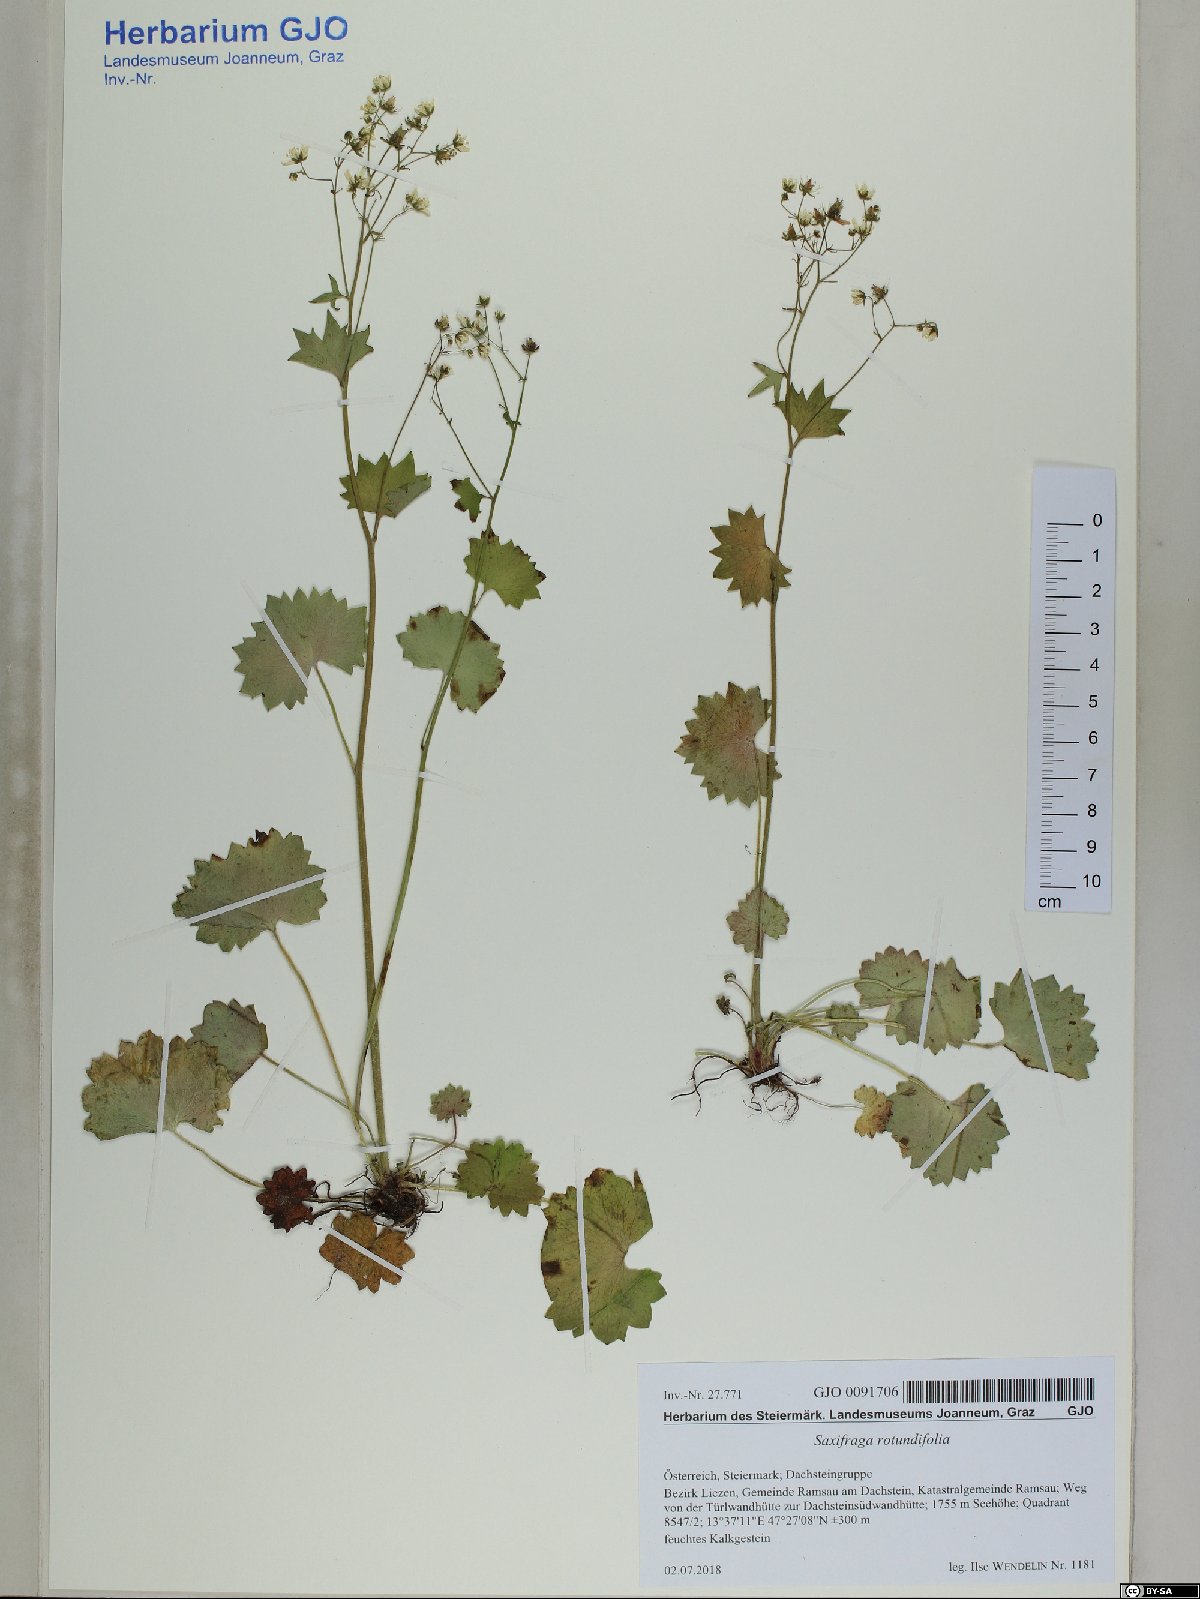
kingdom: Plantae
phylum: Tracheophyta
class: Magnoliopsida
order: Saxifragales
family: Saxifragaceae
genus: Saxifraga
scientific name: Saxifraga rotundifolia
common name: Round-leaved saxifrage
